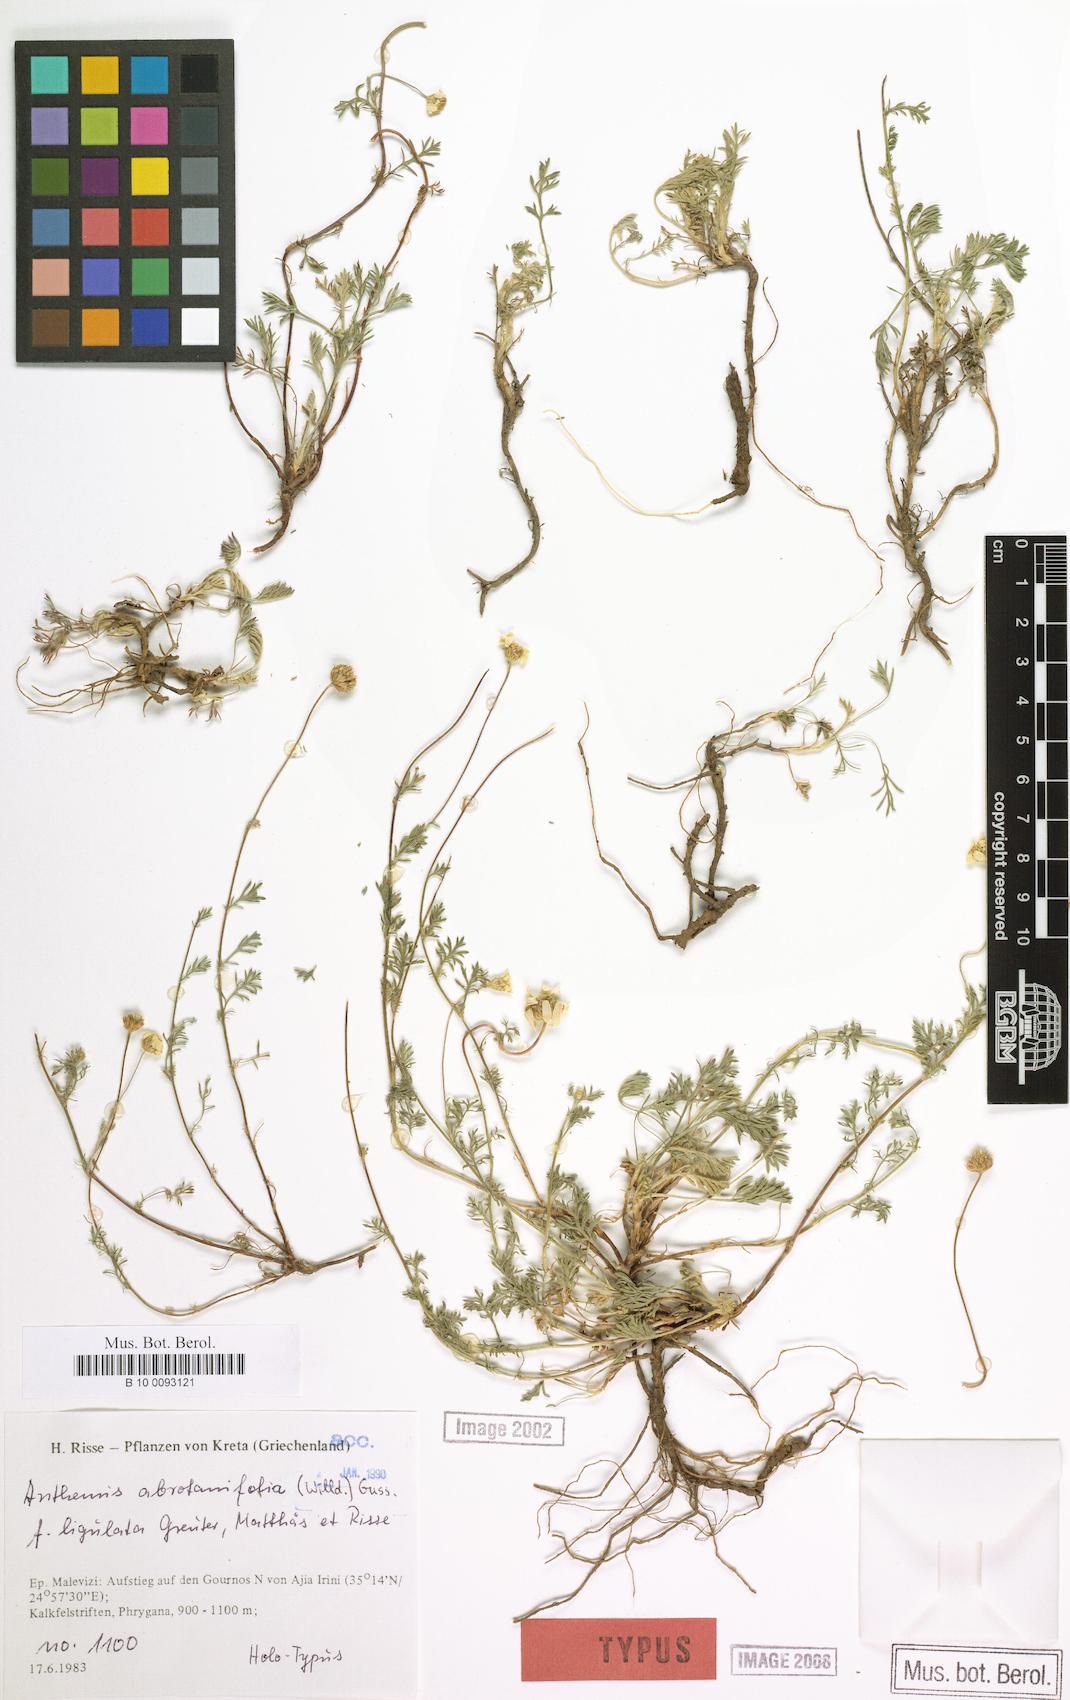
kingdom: Plantae
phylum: Tracheophyta
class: Magnoliopsida
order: Asterales
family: Asteraceae
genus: Anthemis
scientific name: Anthemis abrotanifolia
